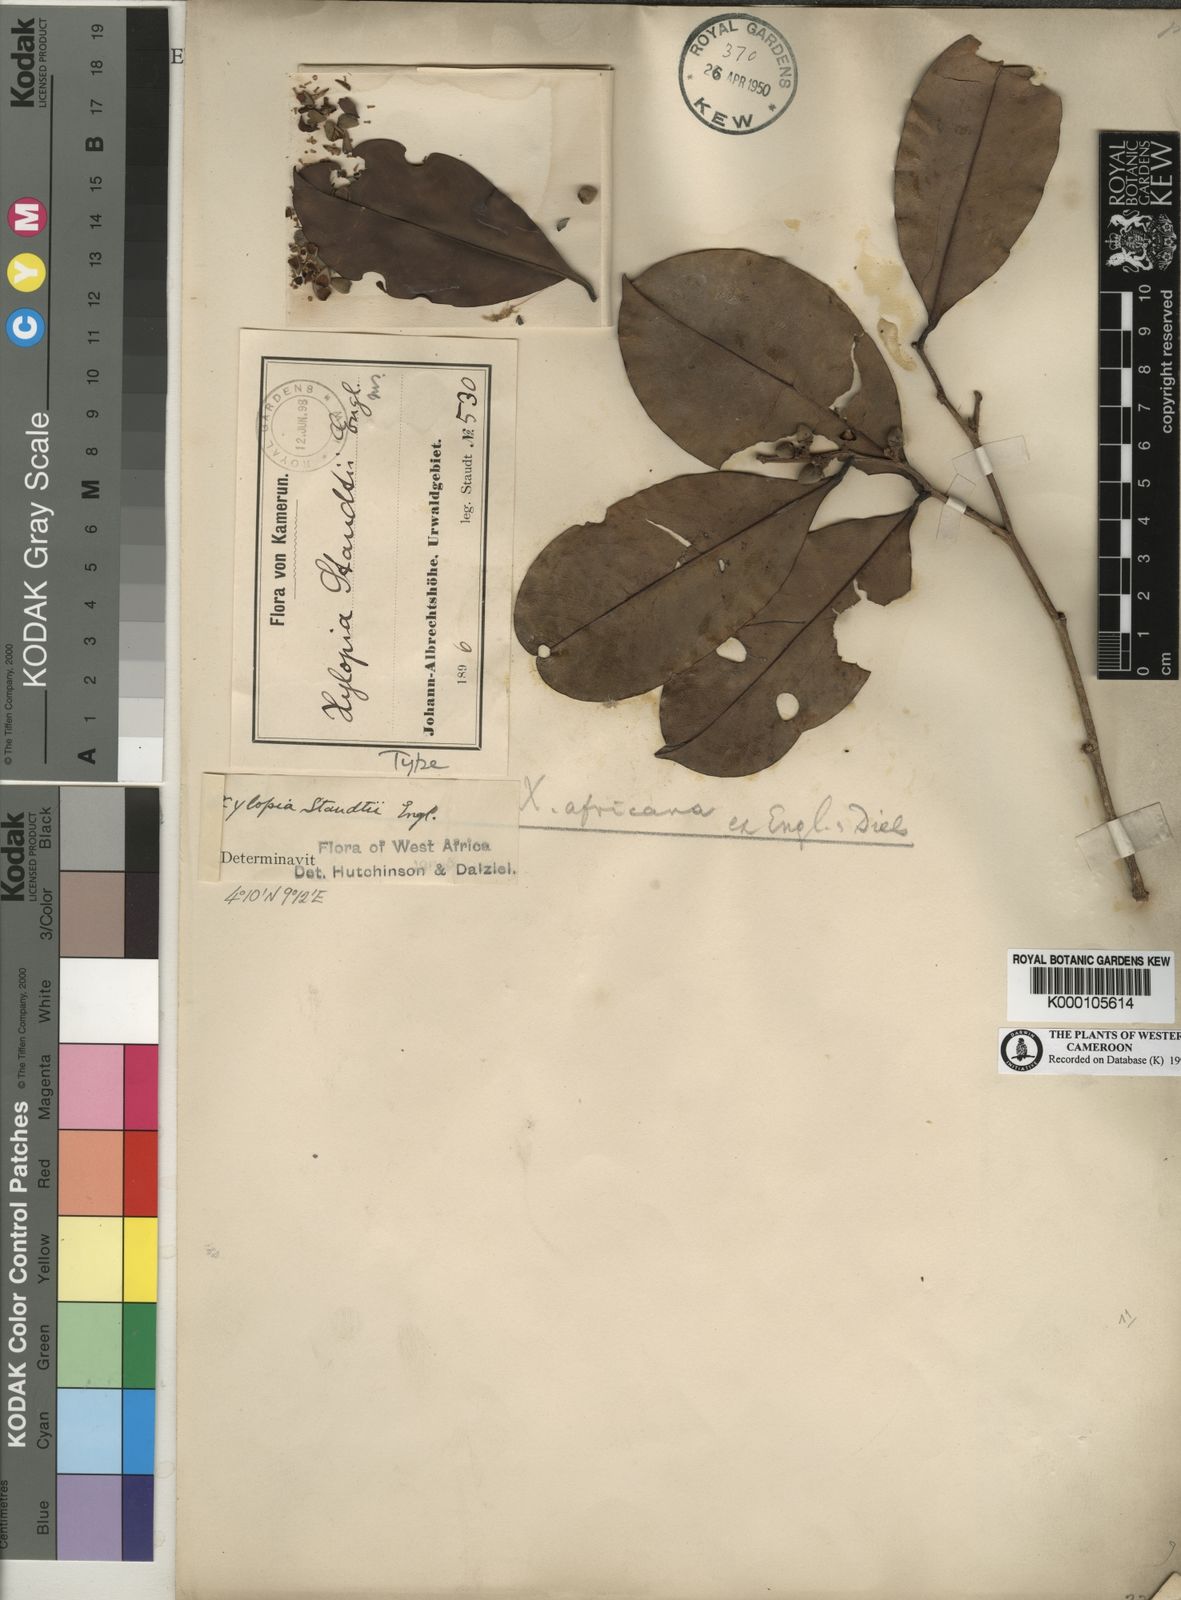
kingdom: Plantae
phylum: Tracheophyta
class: Magnoliopsida
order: Magnoliales
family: Annonaceae
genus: Xylopia
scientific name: Xylopia staudtii
